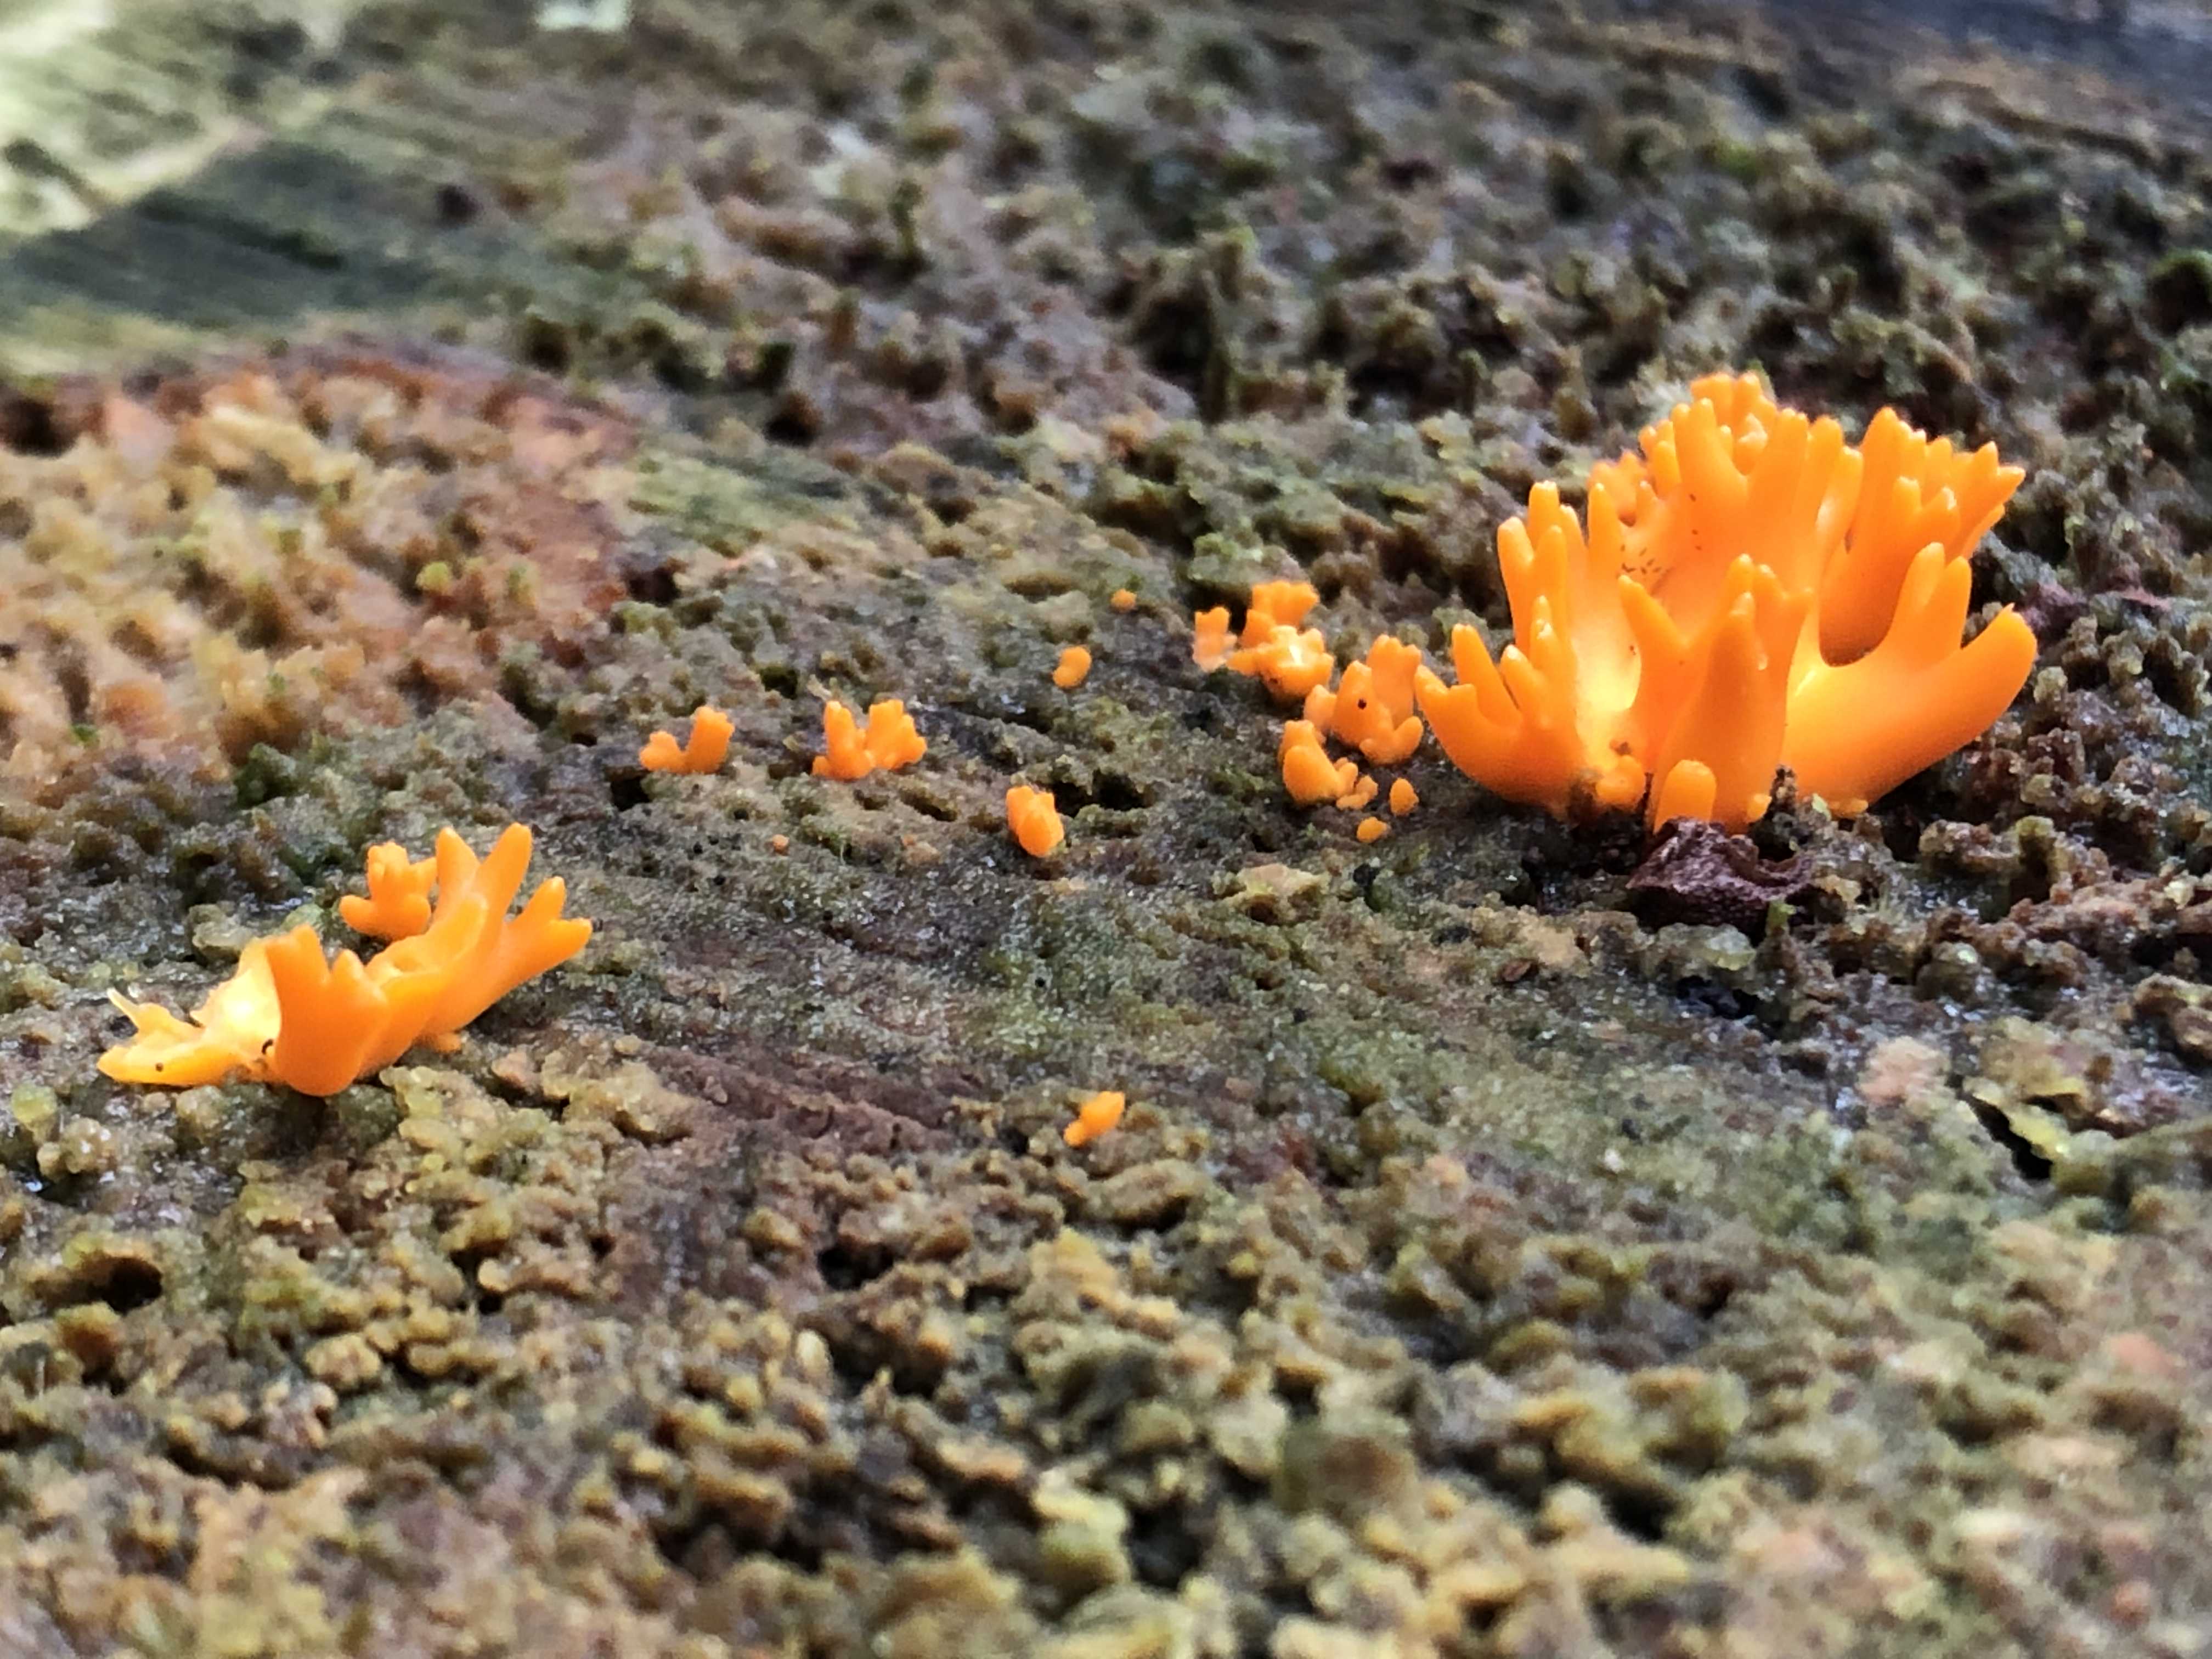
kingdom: Fungi
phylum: Basidiomycota
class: Dacrymycetes
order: Dacrymycetales
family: Dacrymycetaceae
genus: Calocera
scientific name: Calocera viscosa
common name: almindelig guldgaffel
